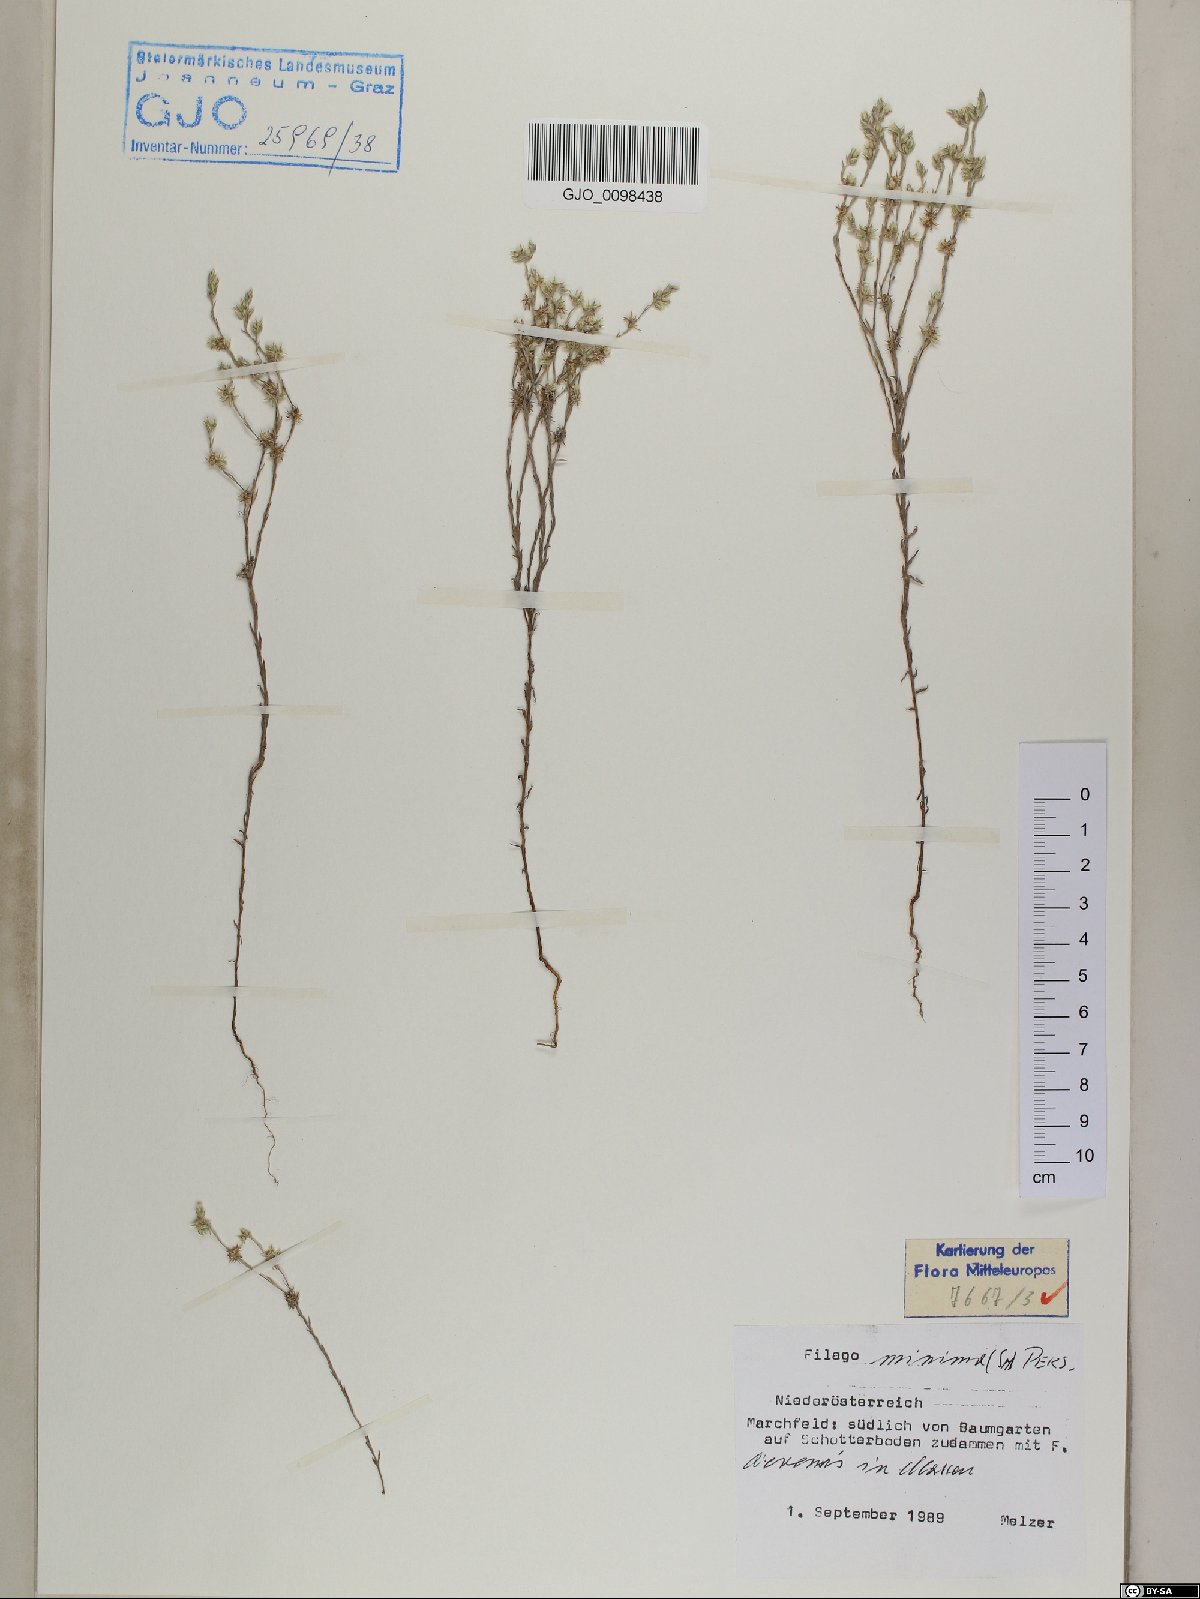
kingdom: Plantae
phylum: Tracheophyta
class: Magnoliopsida
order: Asterales
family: Asteraceae
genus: Logfia
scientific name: Logfia minima
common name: Little cottonrose
